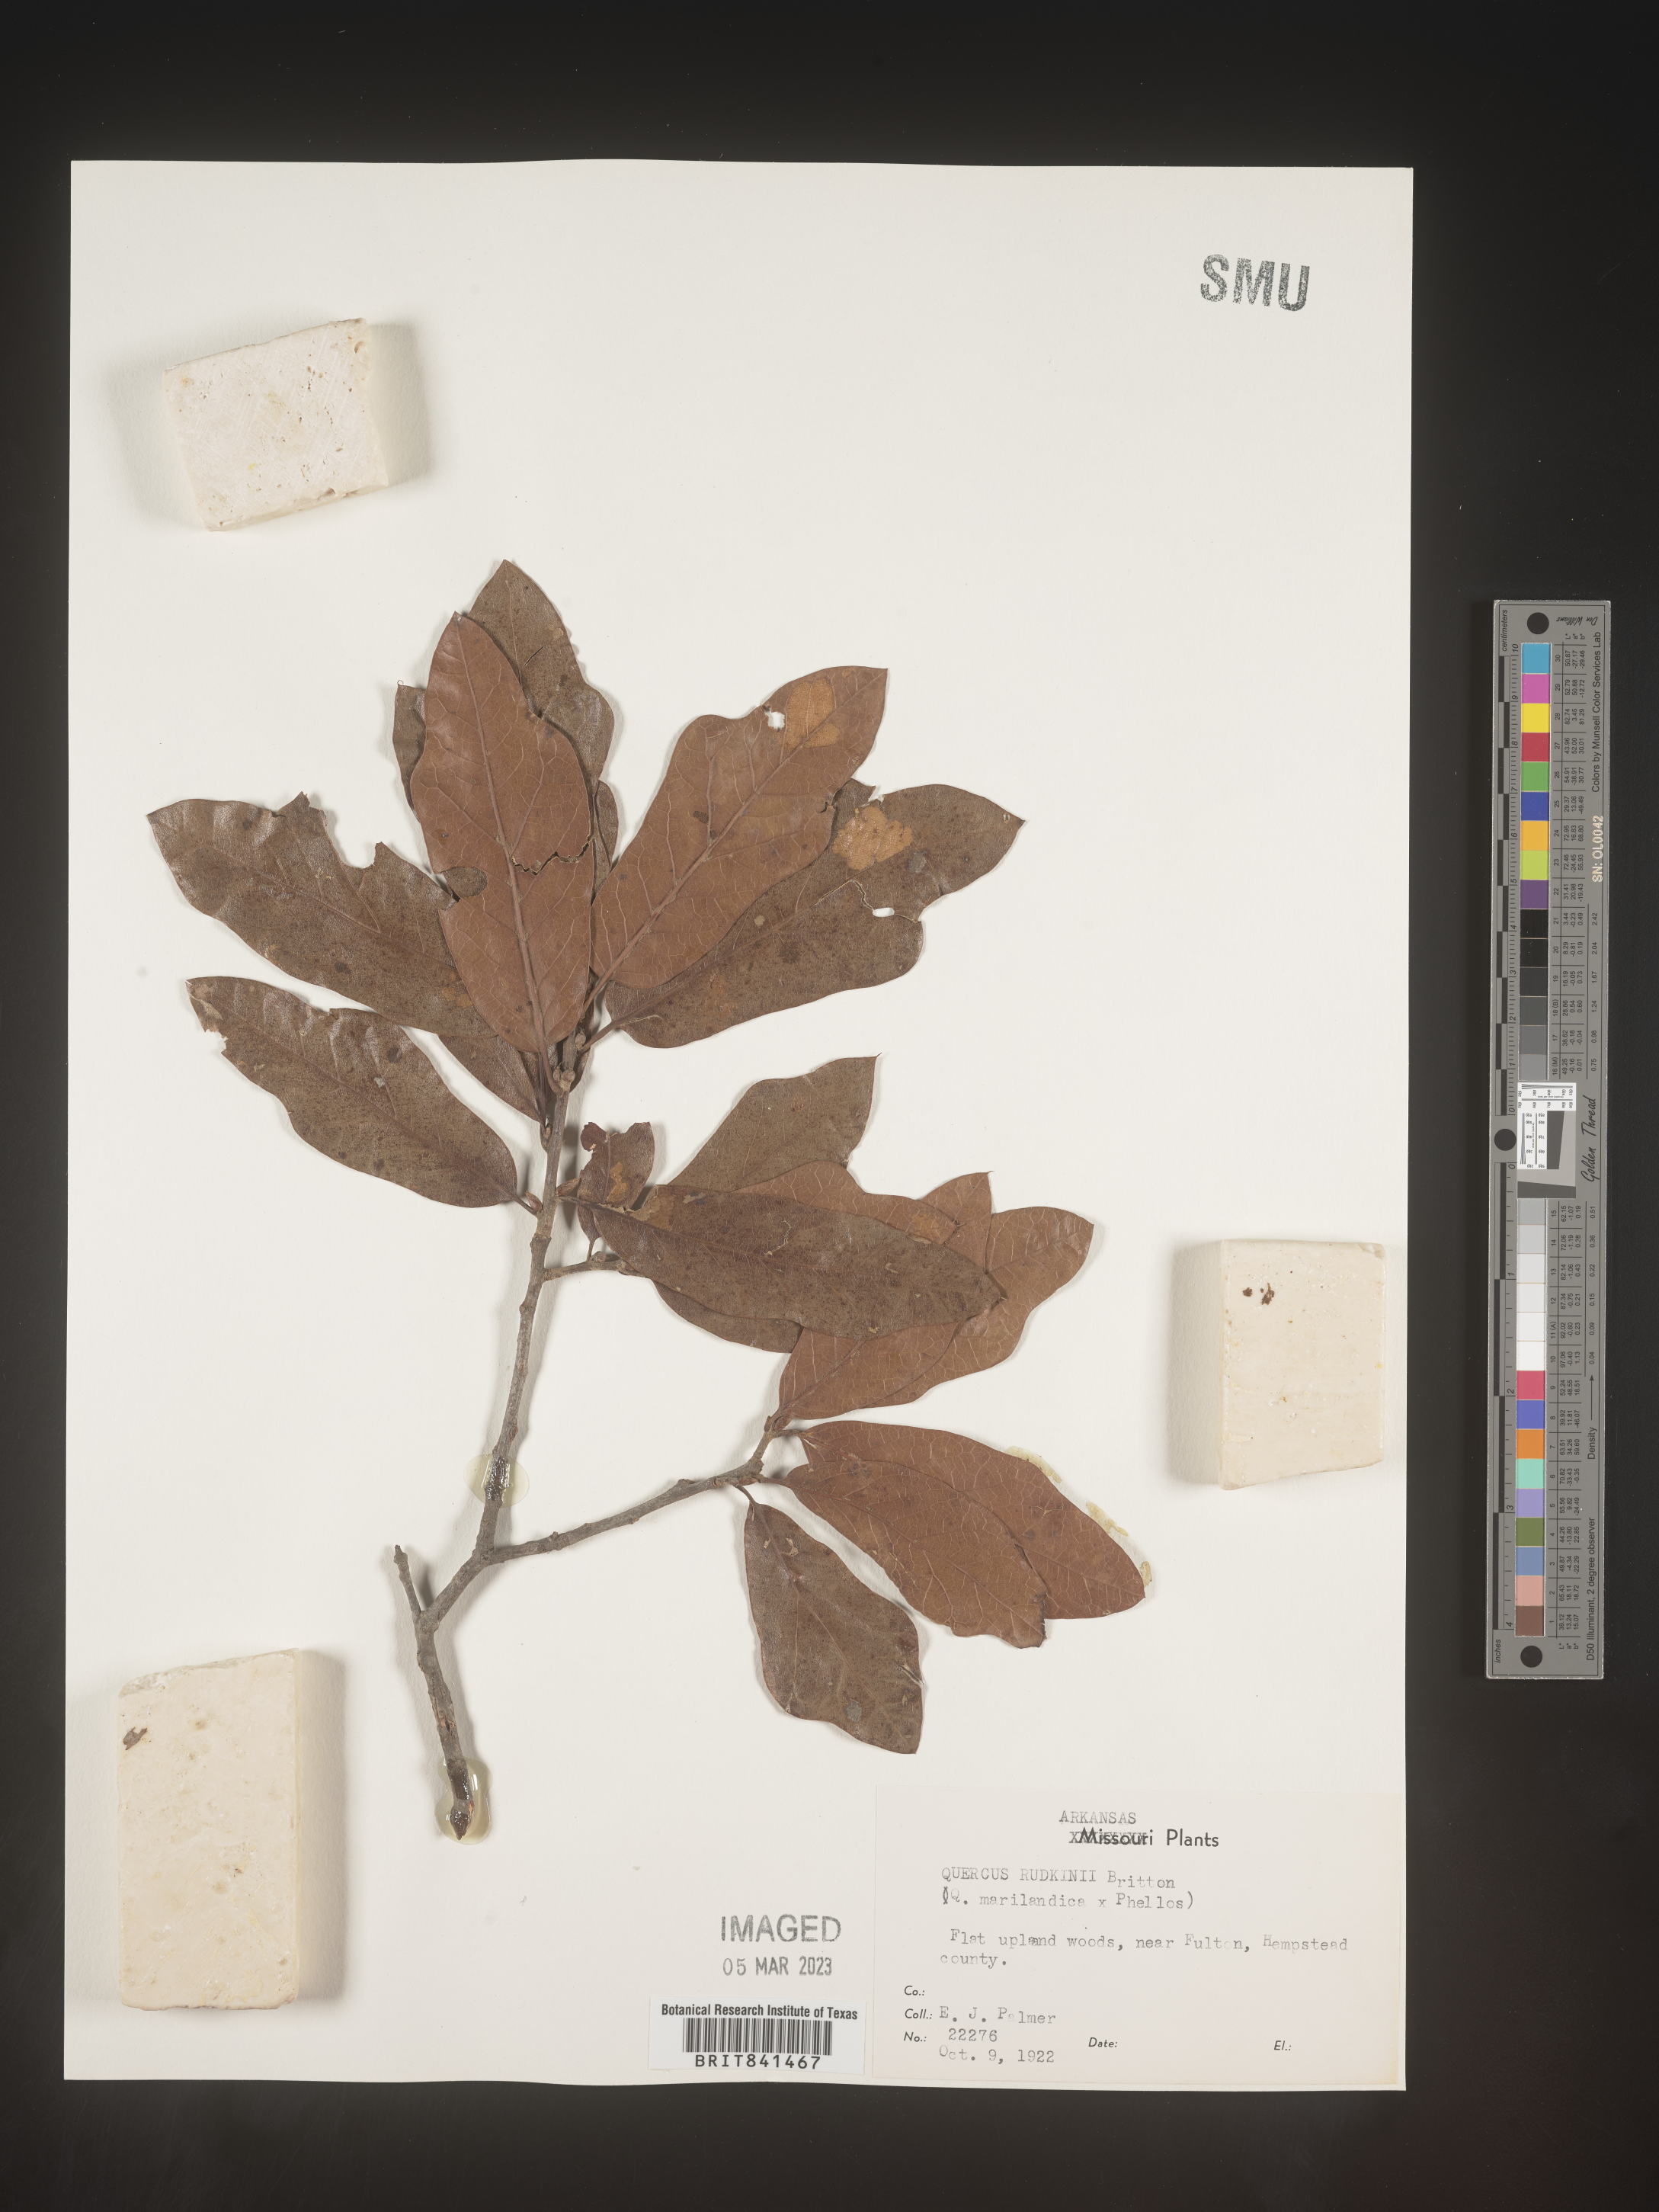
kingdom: Plantae
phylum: Tracheophyta
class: Magnoliopsida
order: Fagales
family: Fagaceae
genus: Quercus
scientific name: Quercus rudkinii
